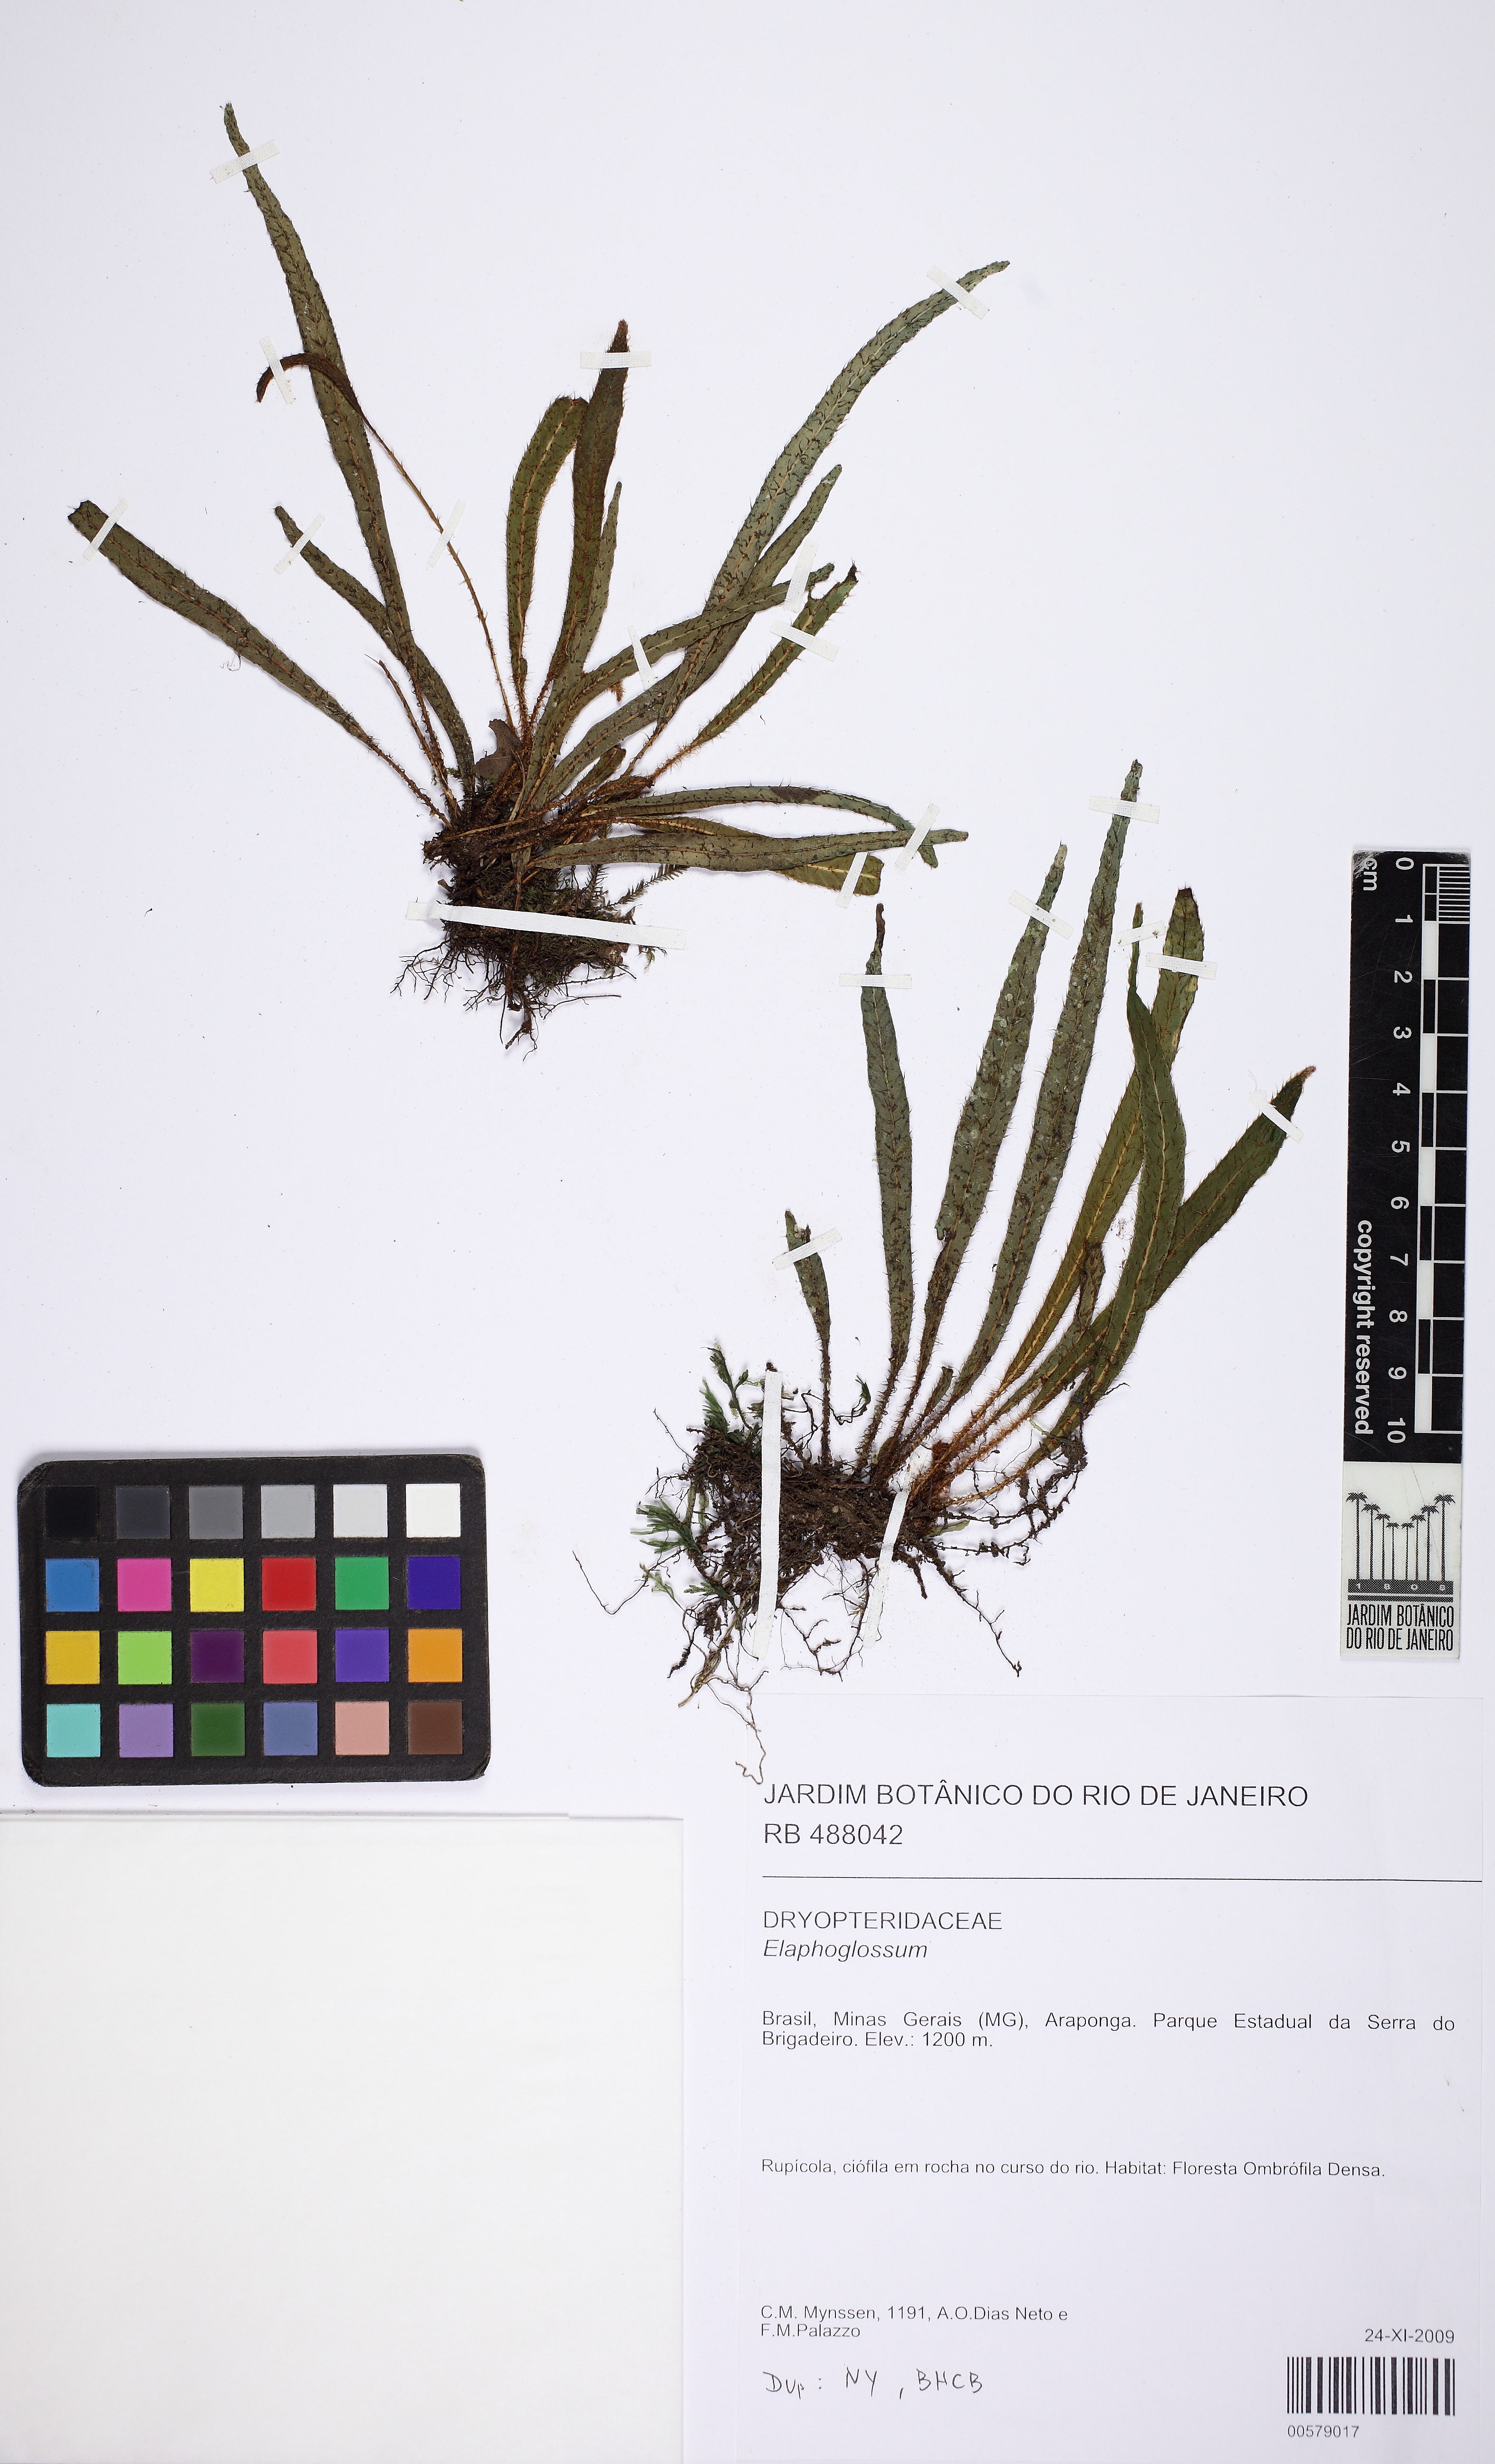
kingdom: Plantae
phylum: Tracheophyta
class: Polypodiopsida
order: Polypodiales
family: Dryopteridaceae
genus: Elaphoglossum
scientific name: Elaphoglossum acutum
